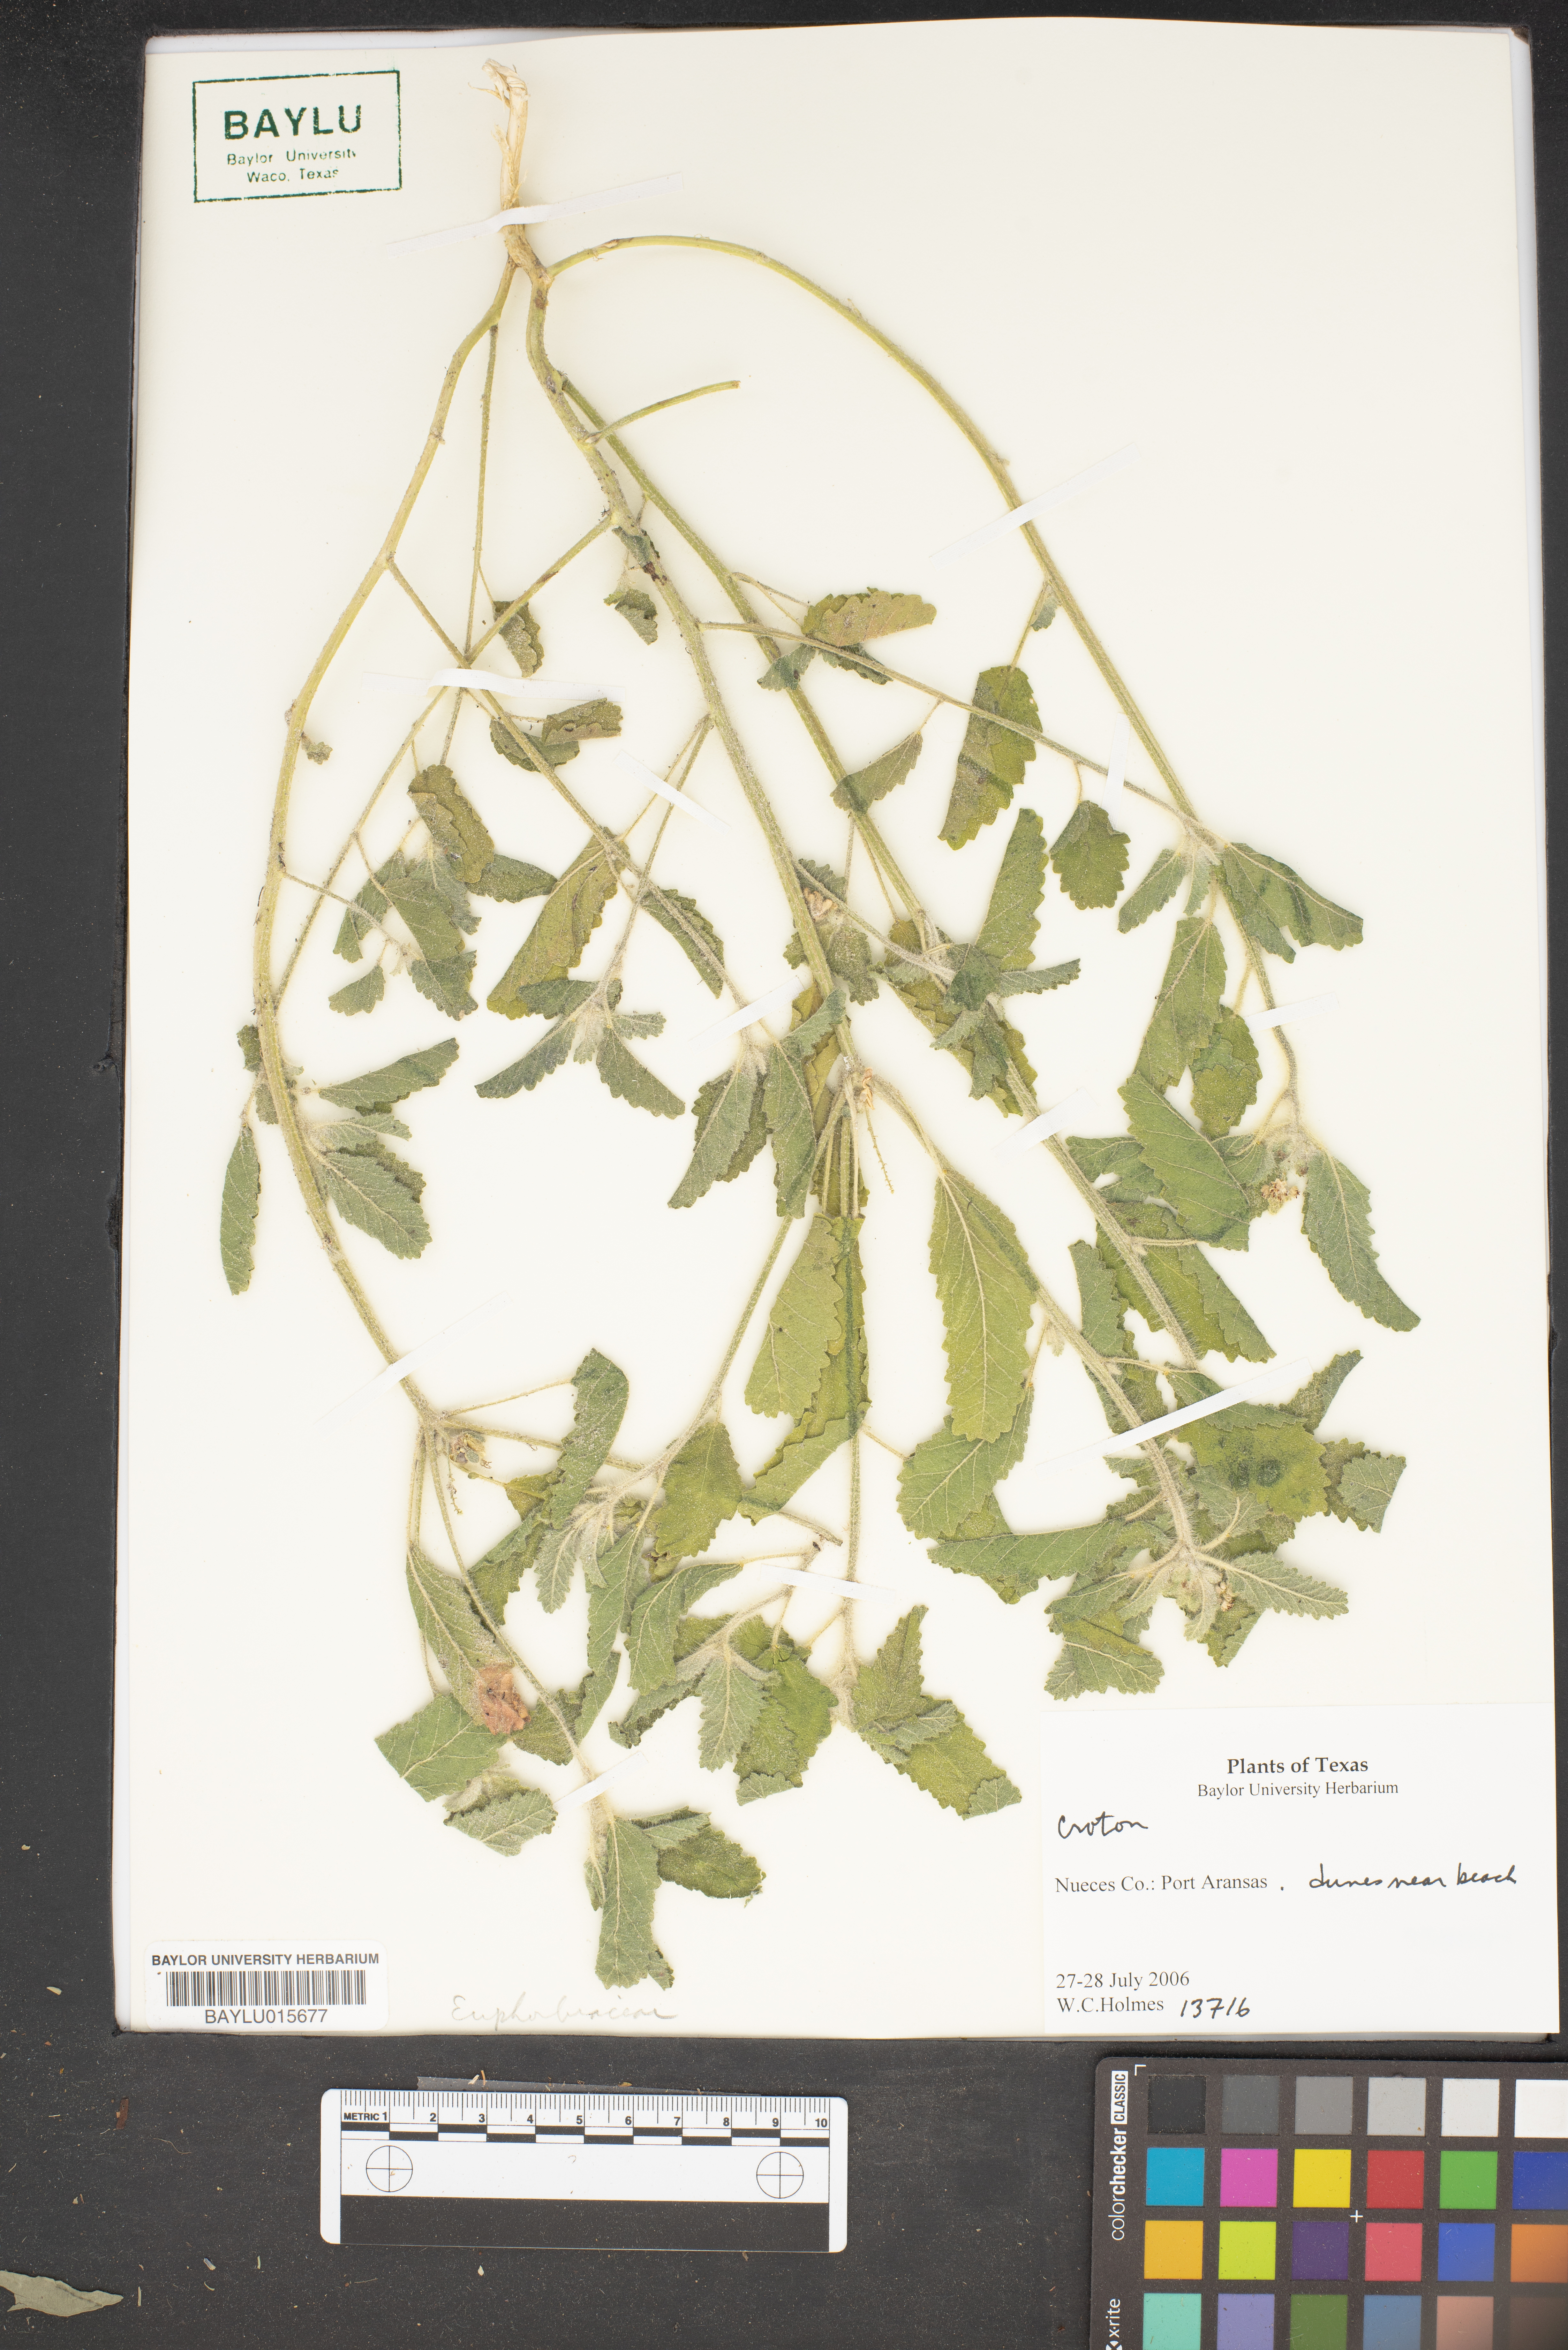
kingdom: Plantae
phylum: Tracheophyta
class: Magnoliopsida
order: Malpighiales
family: Euphorbiaceae
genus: Croton
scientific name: Croton
